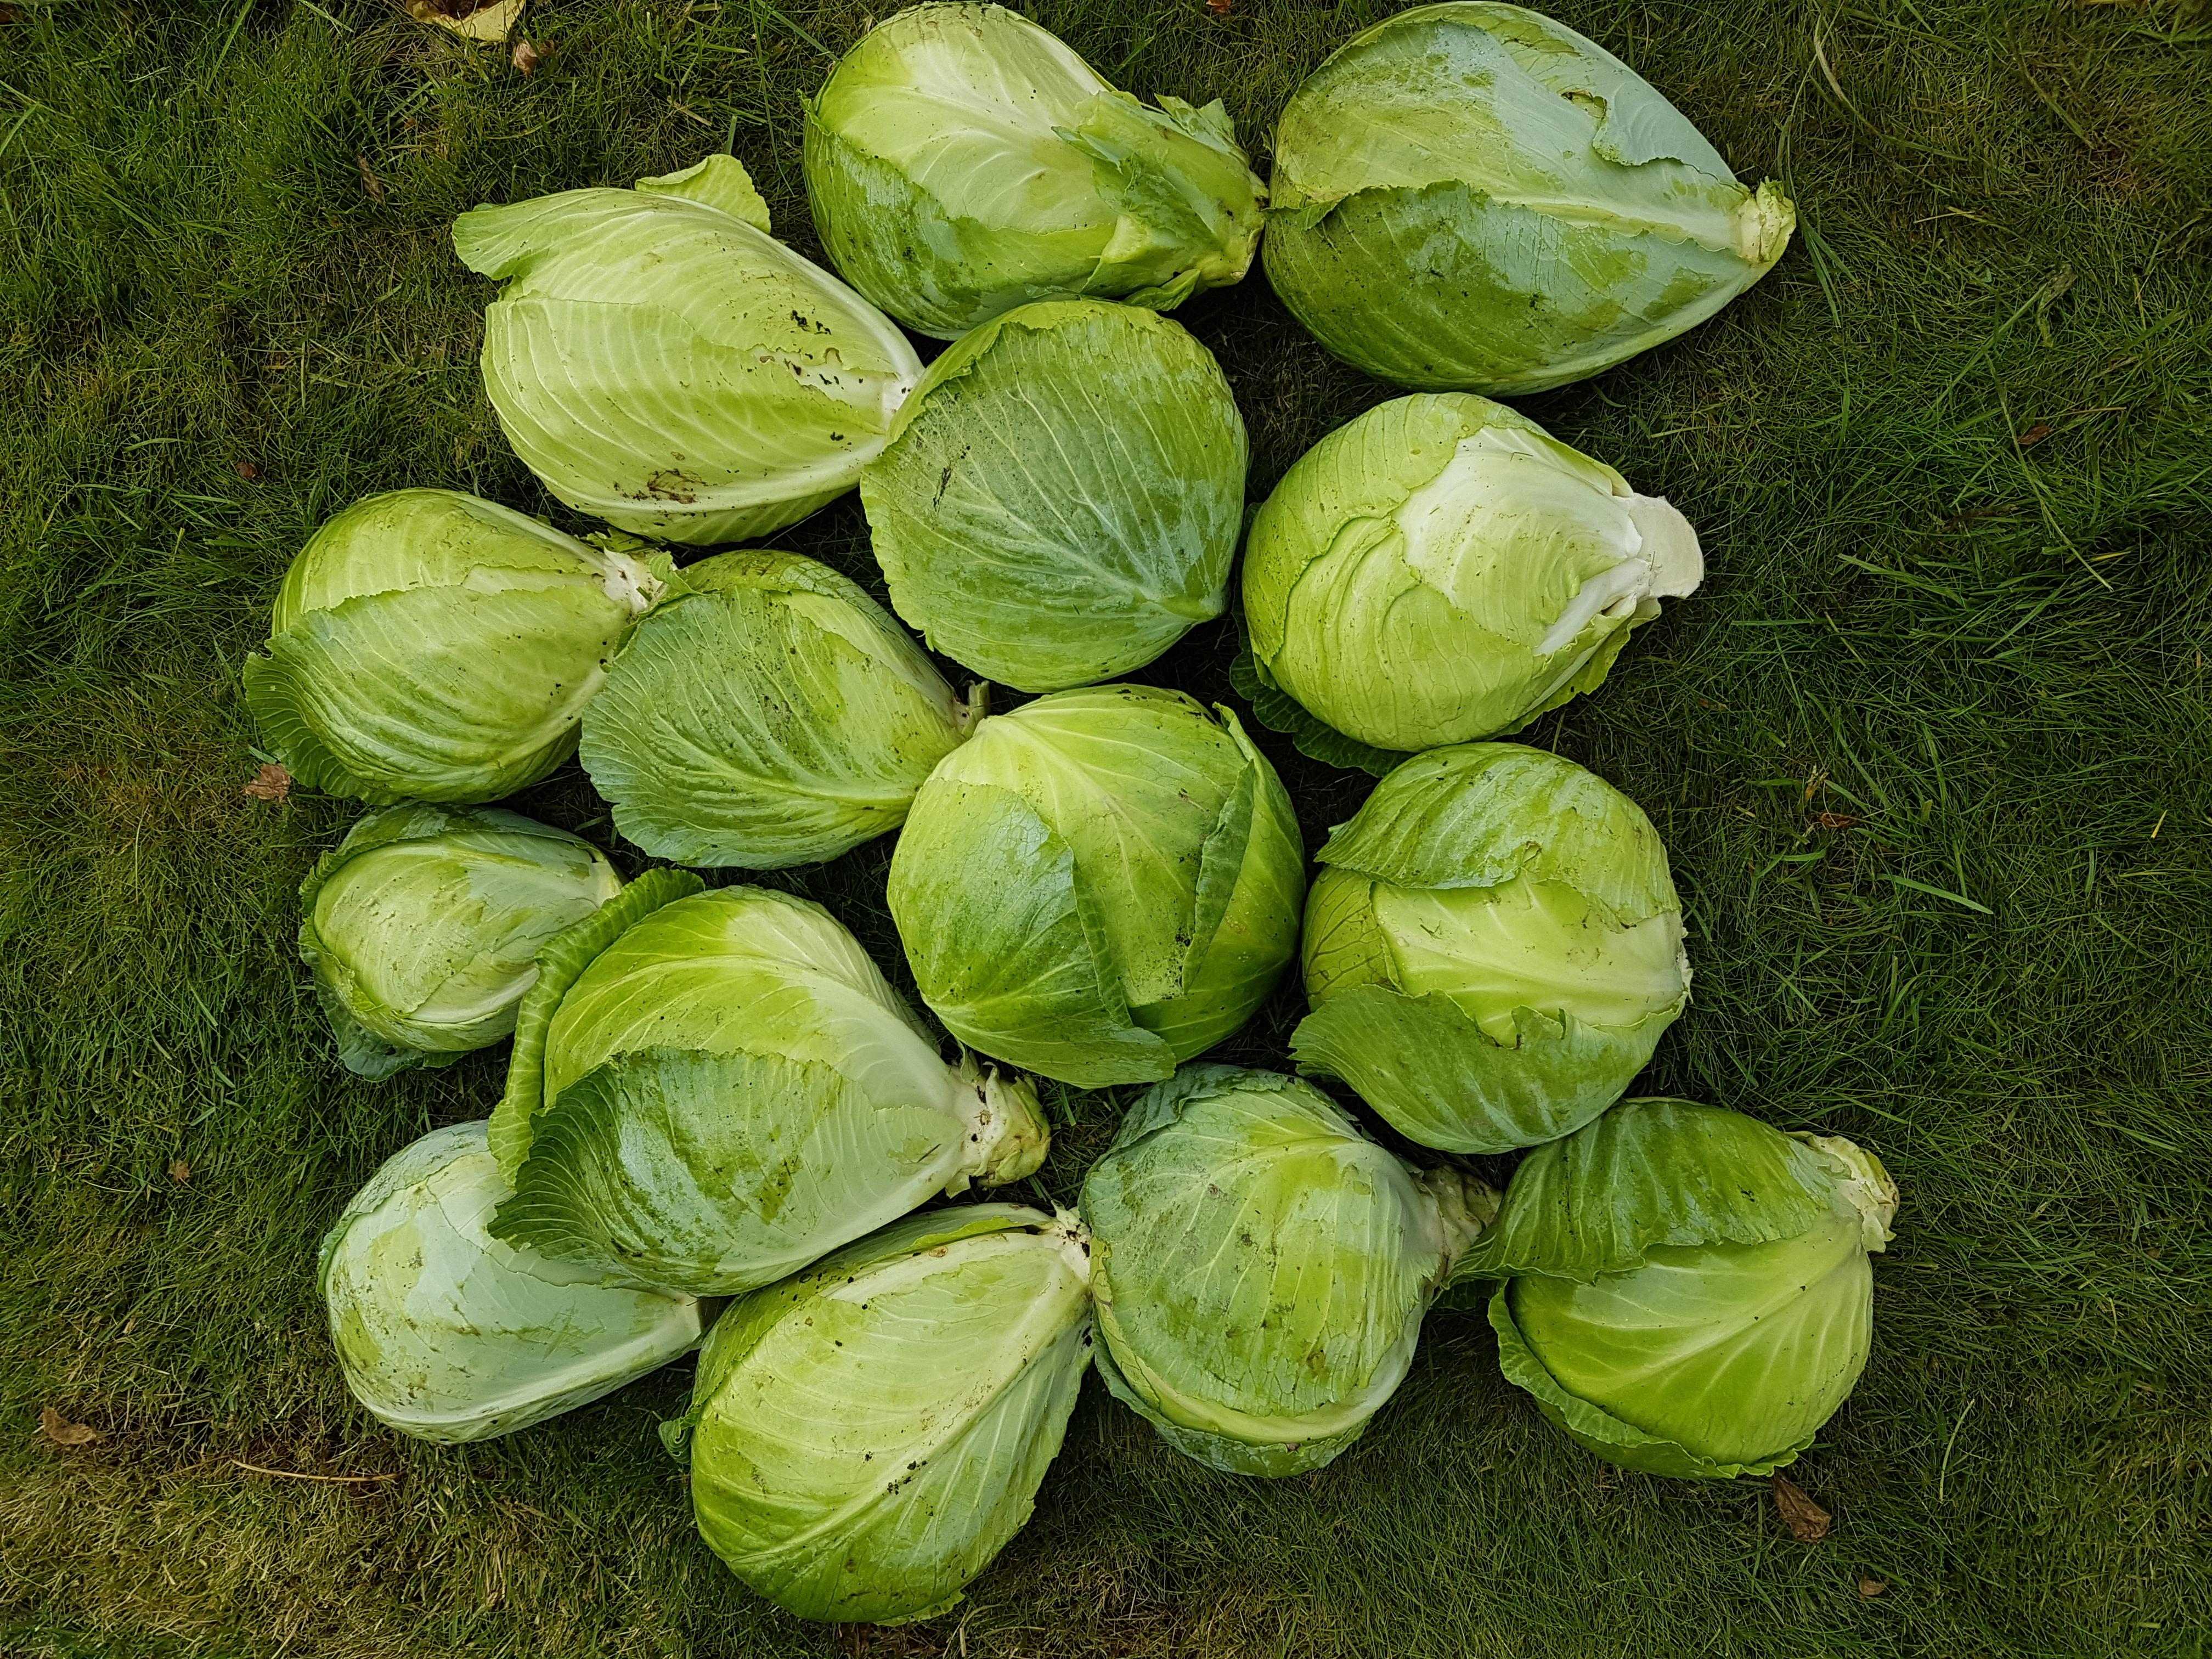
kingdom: Plantae
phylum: Tracheophyta
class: Magnoliopsida
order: Brassicales
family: Brassicaceae
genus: Brassica
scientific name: Brassica oleracea
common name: Cabbage
